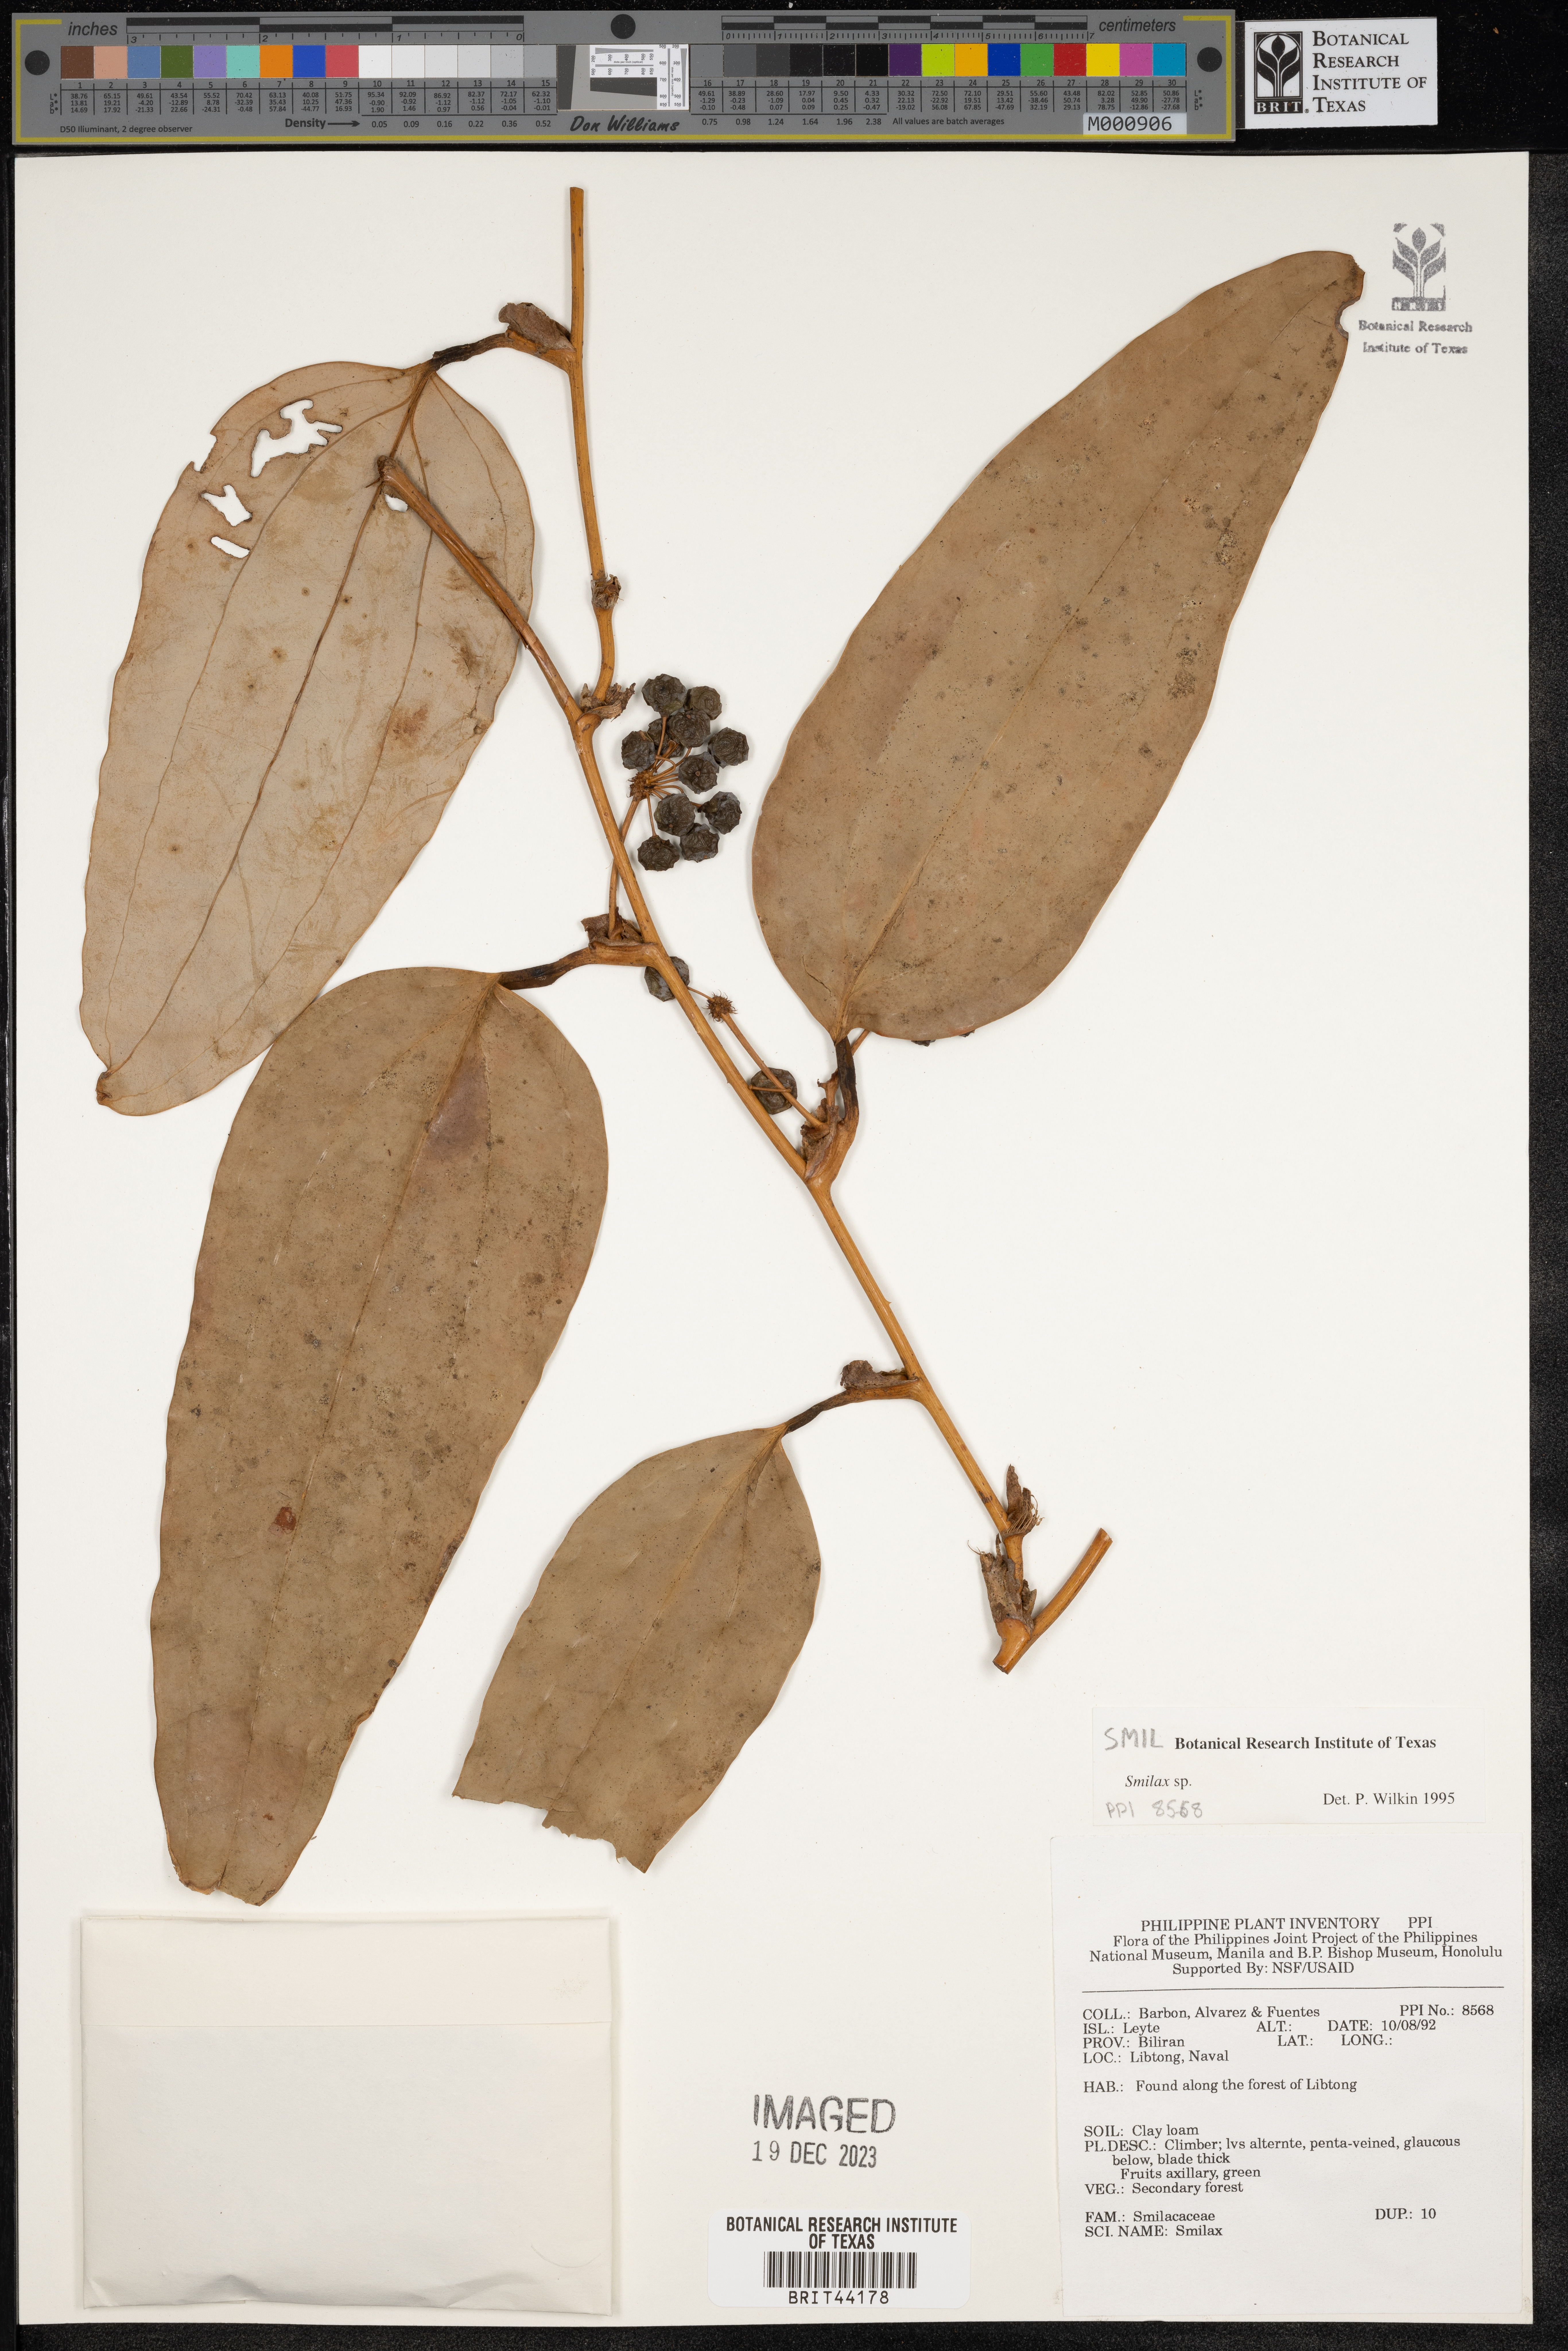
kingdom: Plantae
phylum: Tracheophyta
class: Liliopsida
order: Liliales
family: Smilacaceae
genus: Smilax
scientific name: Smilax
